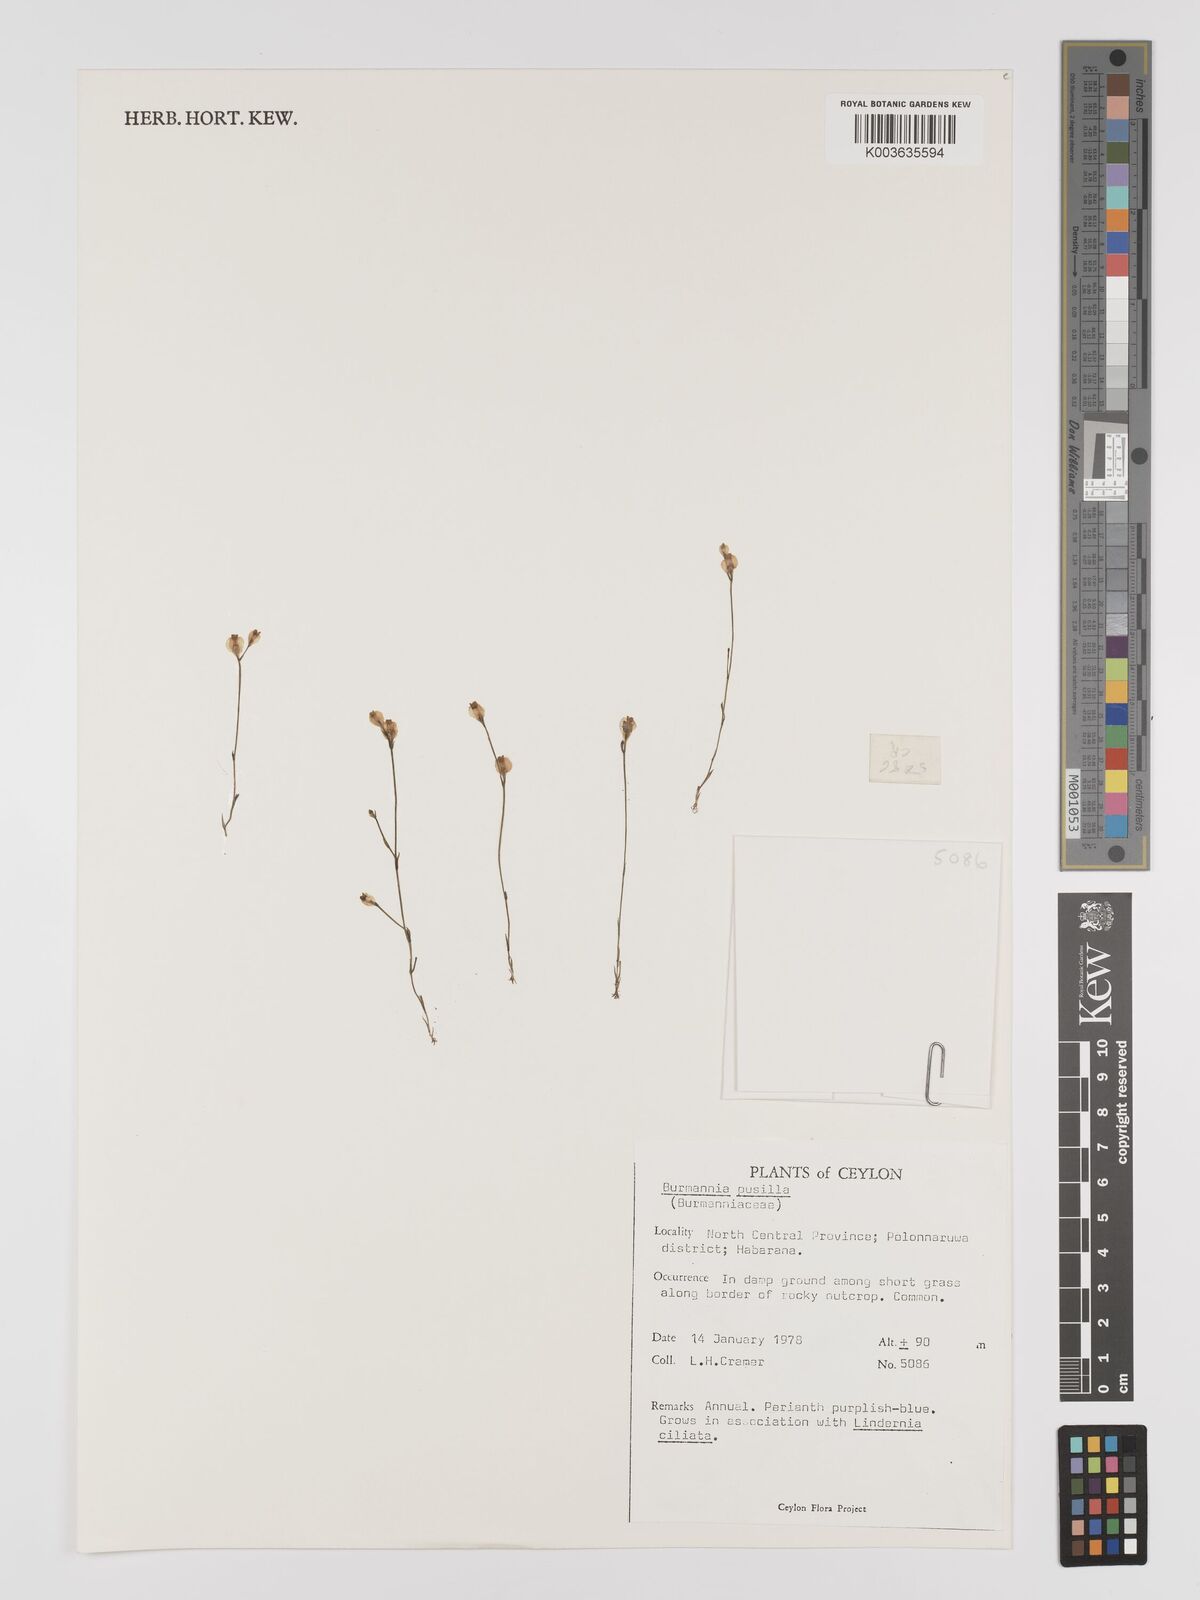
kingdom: Plantae
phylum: Tracheophyta
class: Liliopsida
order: Dioscoreales
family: Burmanniaceae
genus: Burmannia
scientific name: Burmannia pusilla
